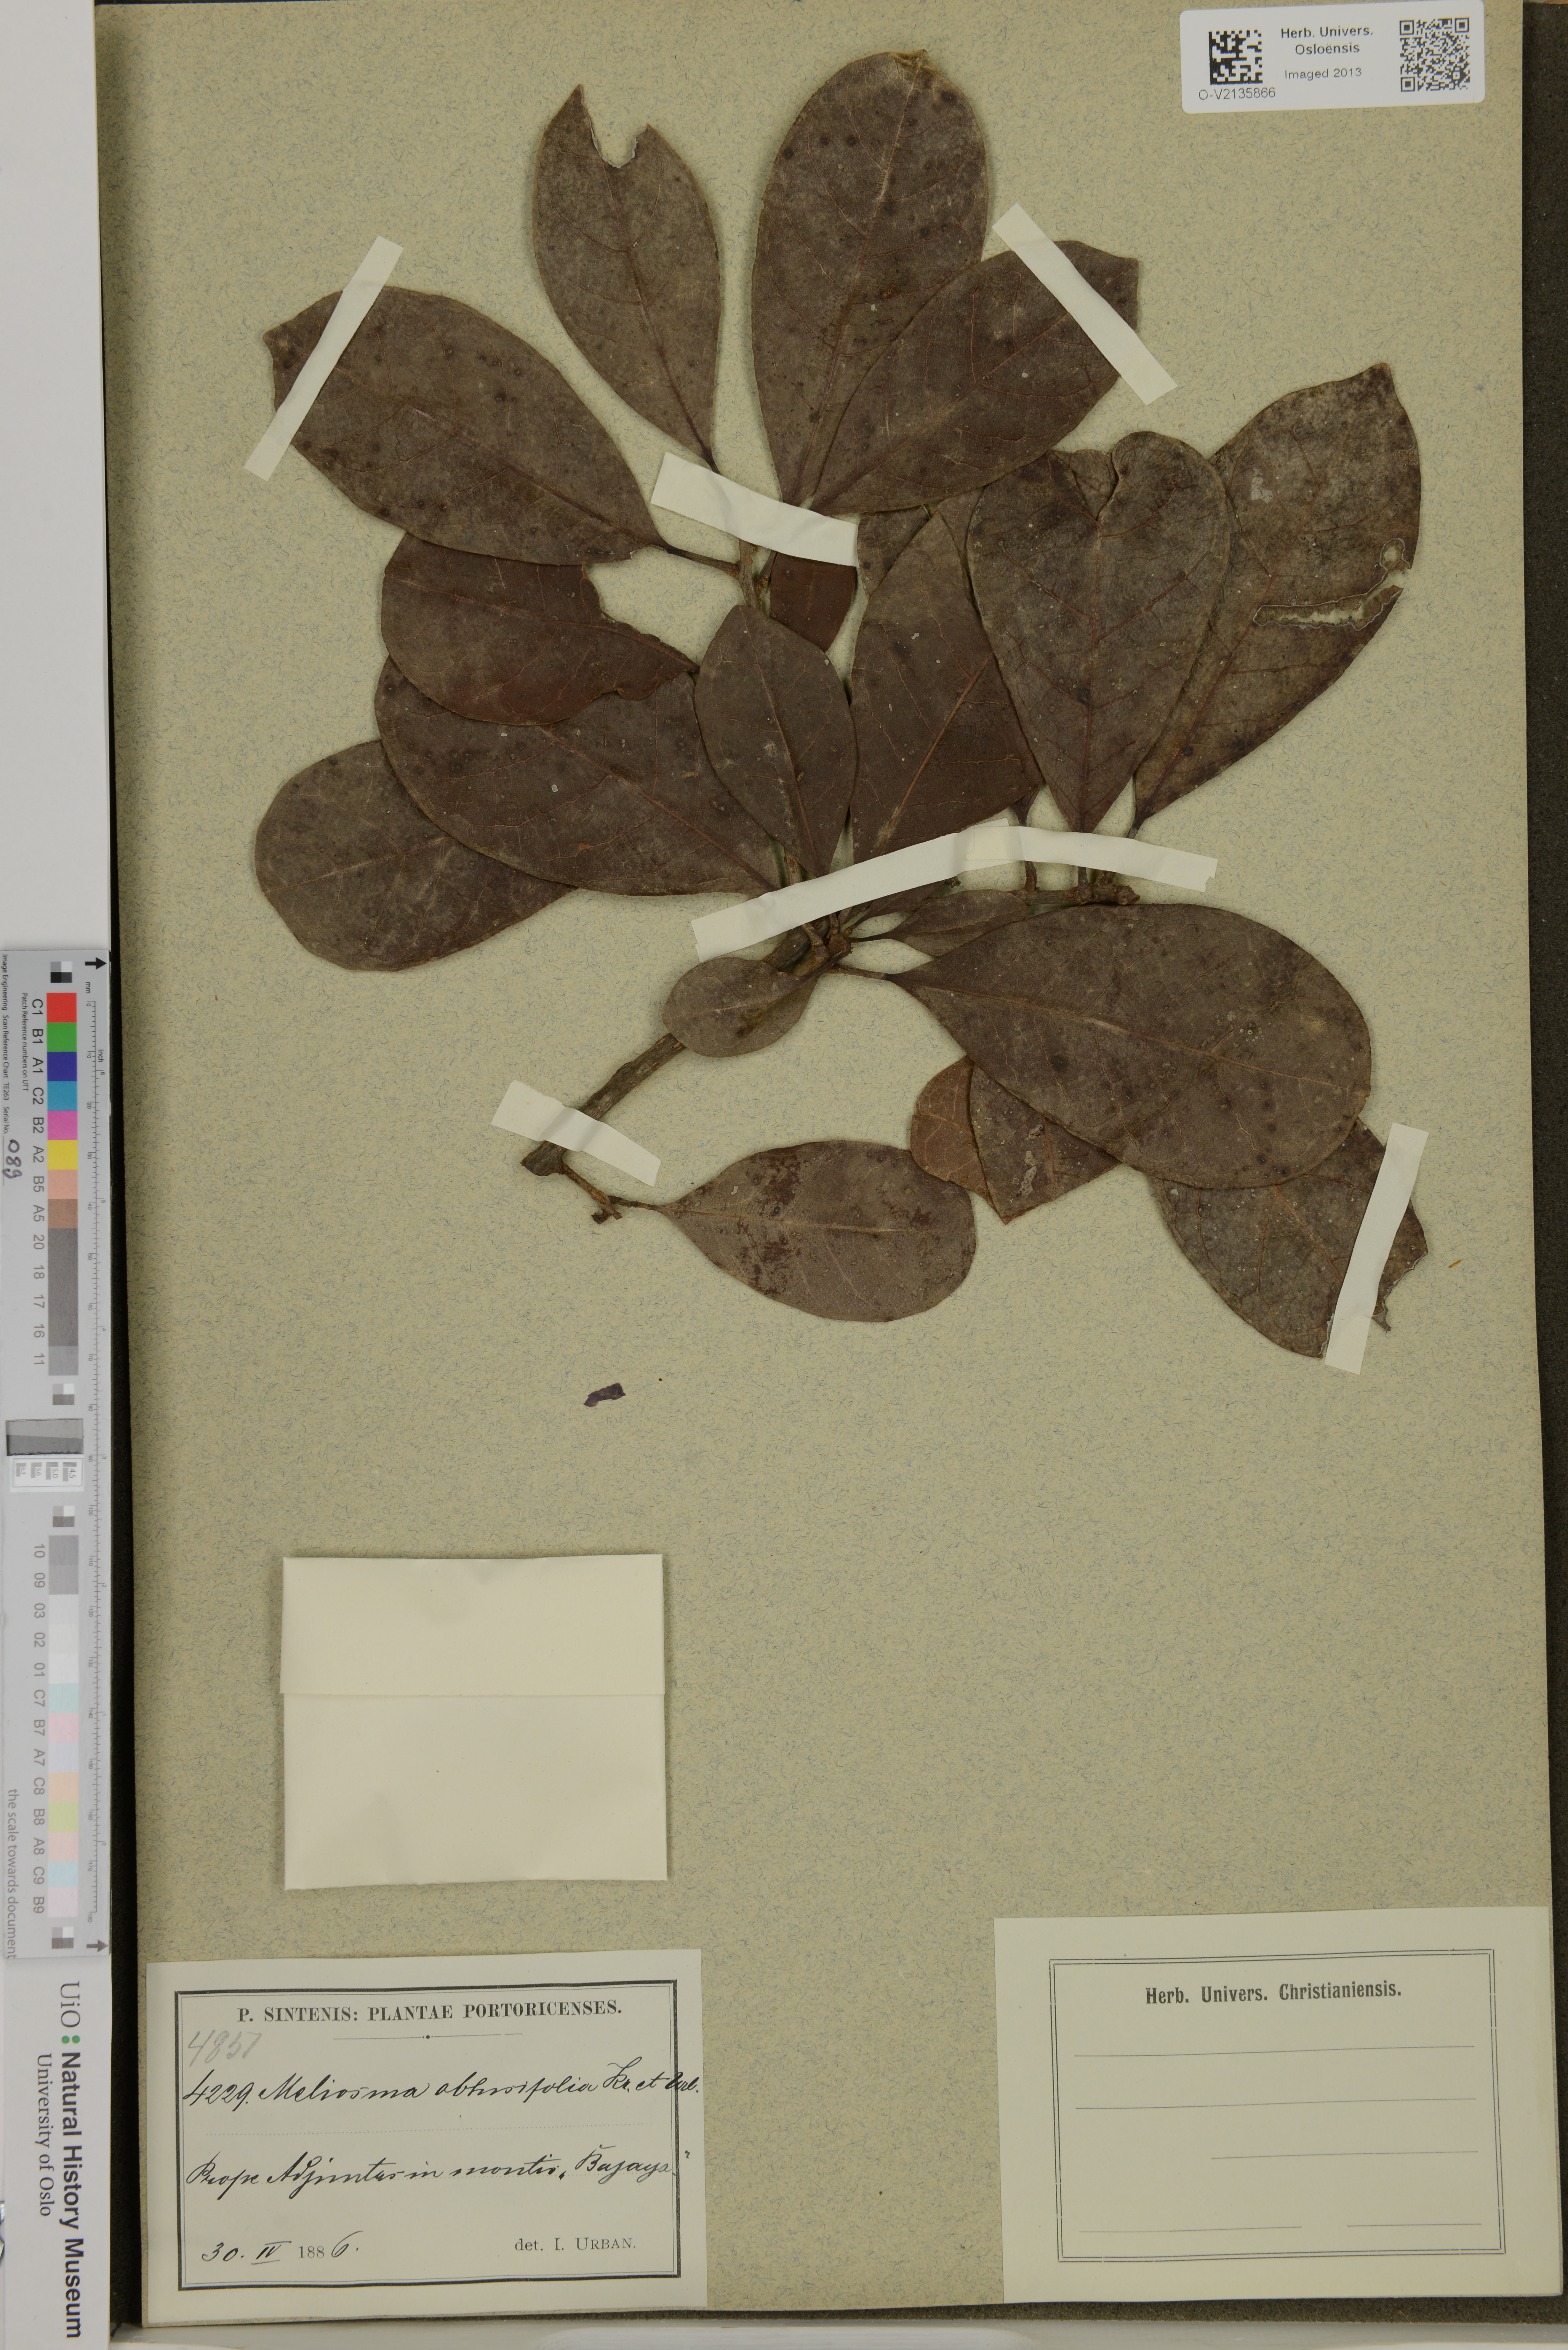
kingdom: Plantae
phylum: Tracheophyta
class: Magnoliopsida
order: Proteales
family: Sabiaceae
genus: Meliosma
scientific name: Meliosma obtusifolia
